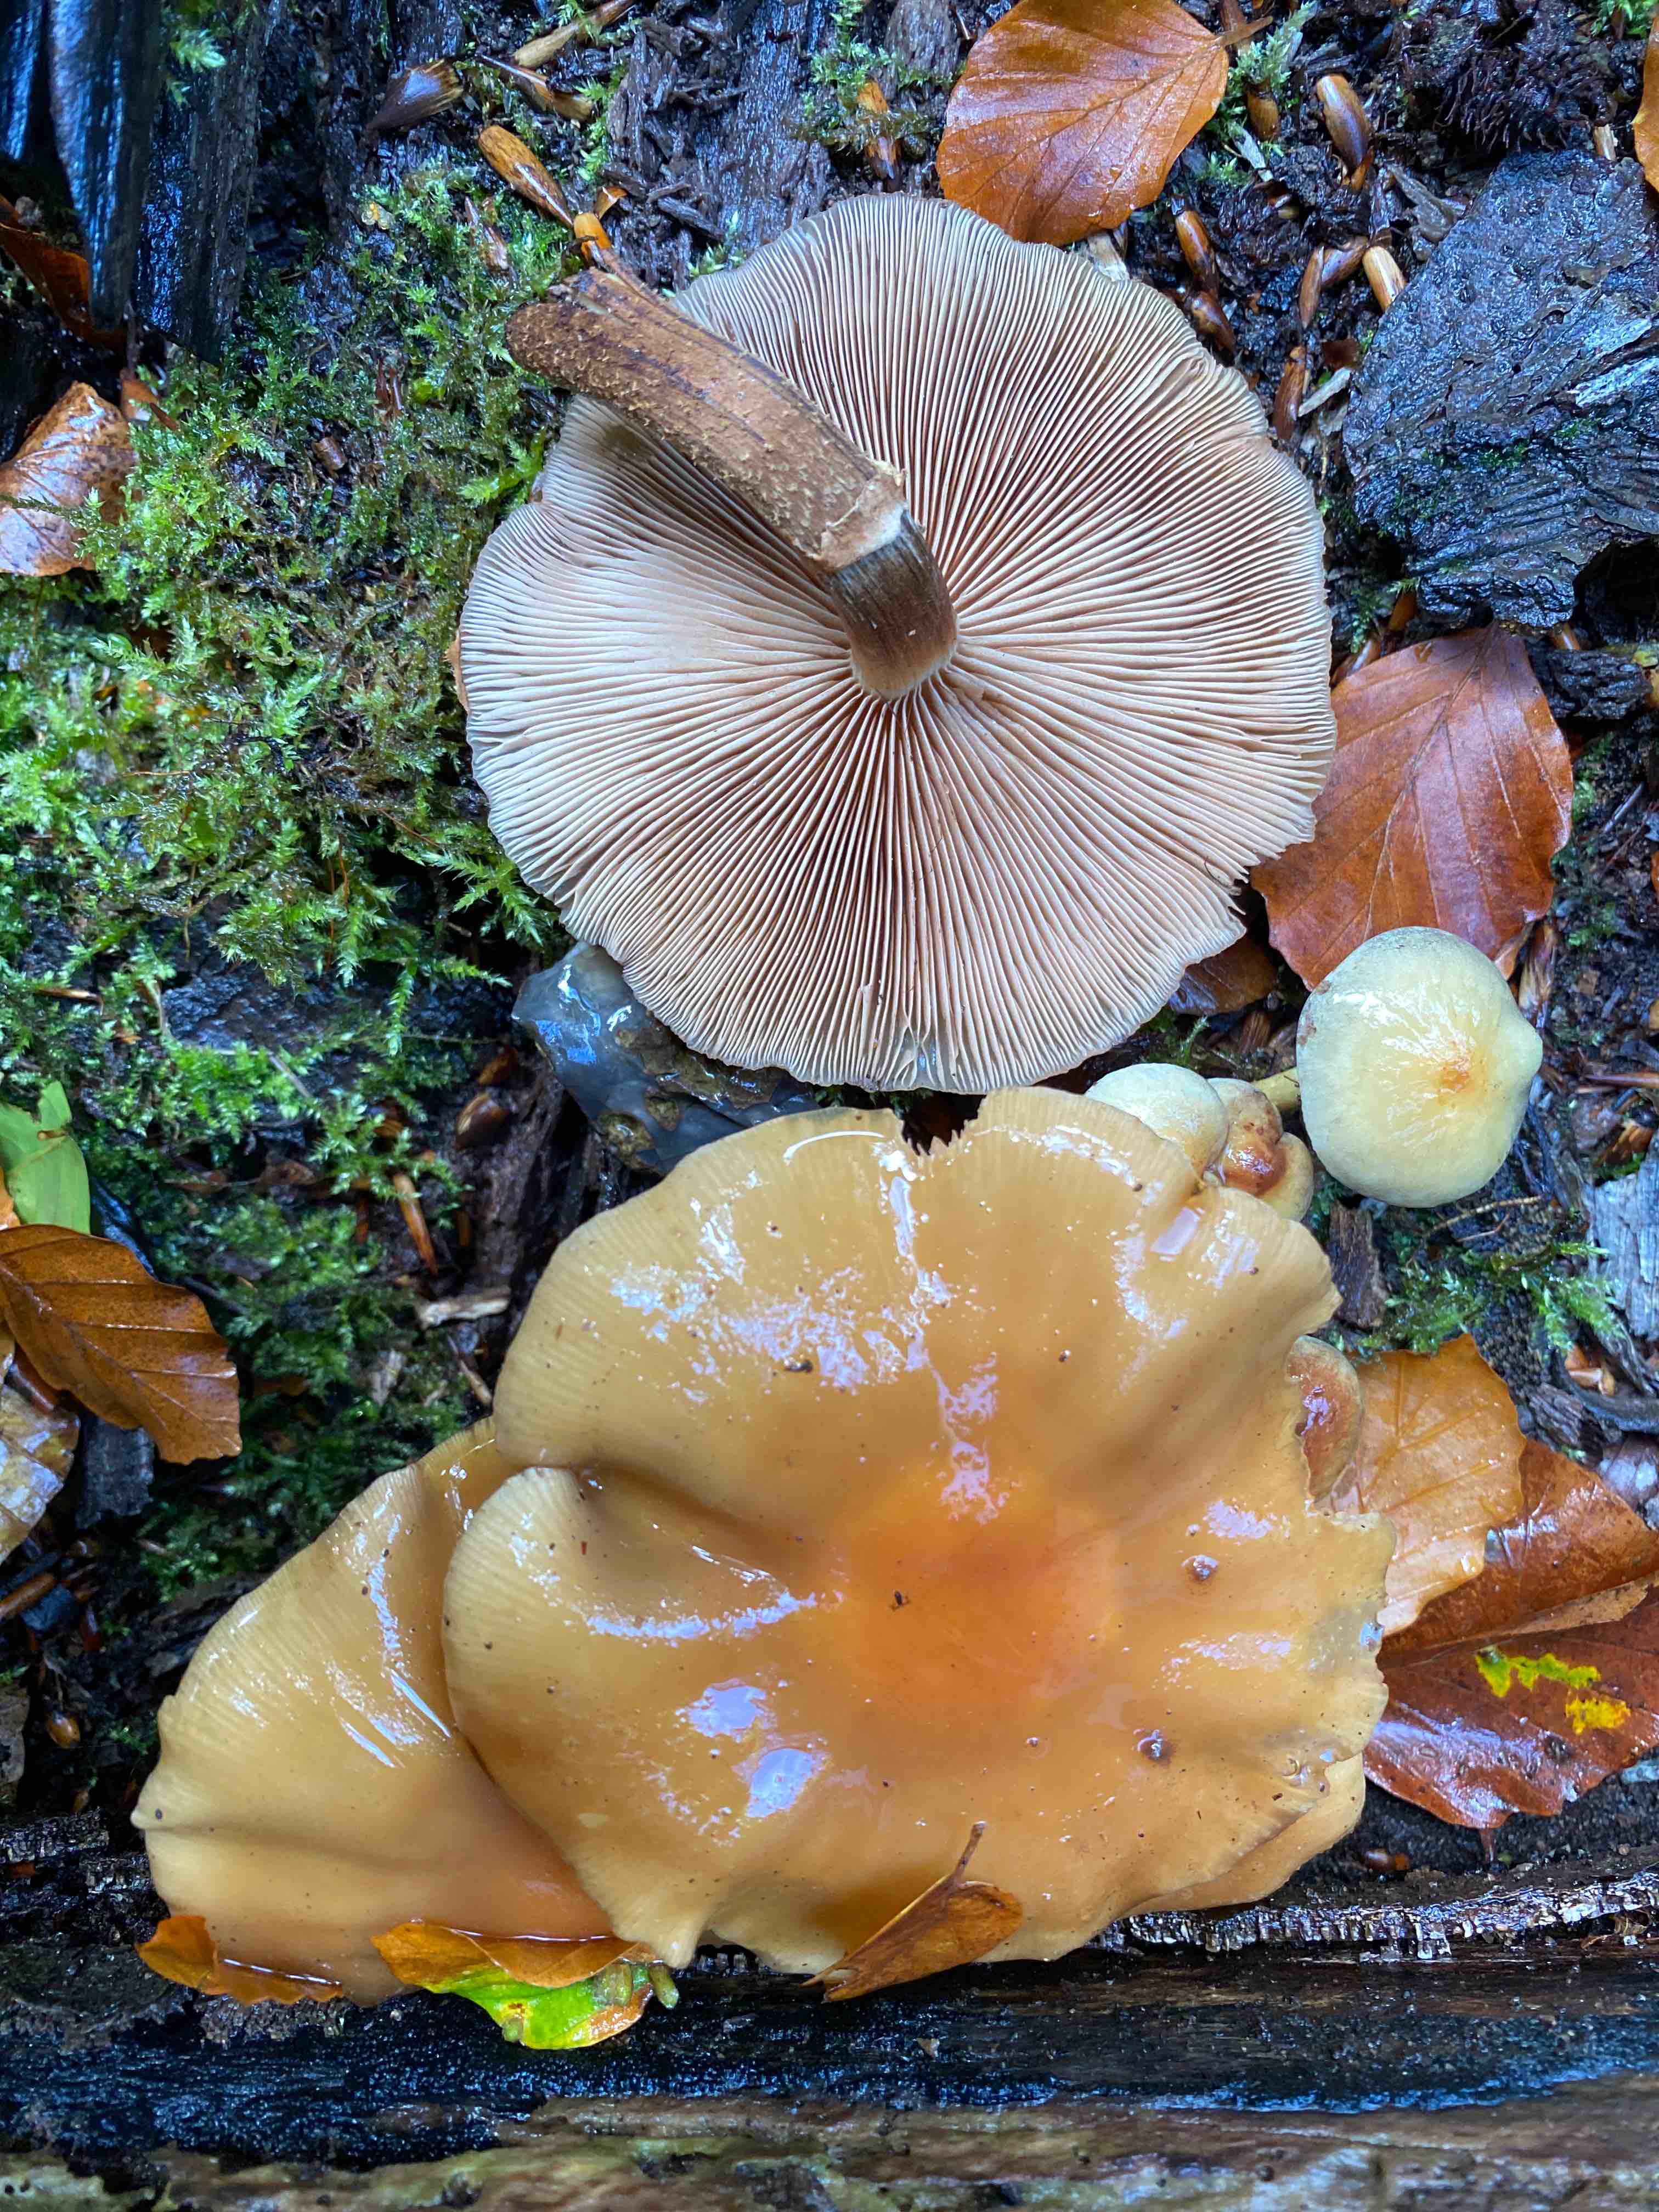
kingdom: Fungi
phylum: Basidiomycota
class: Agaricomycetes
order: Agaricales
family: Strophariaceae
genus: Kuehneromyces
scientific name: Kuehneromyces mutabilis
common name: foranderlig skælhat
